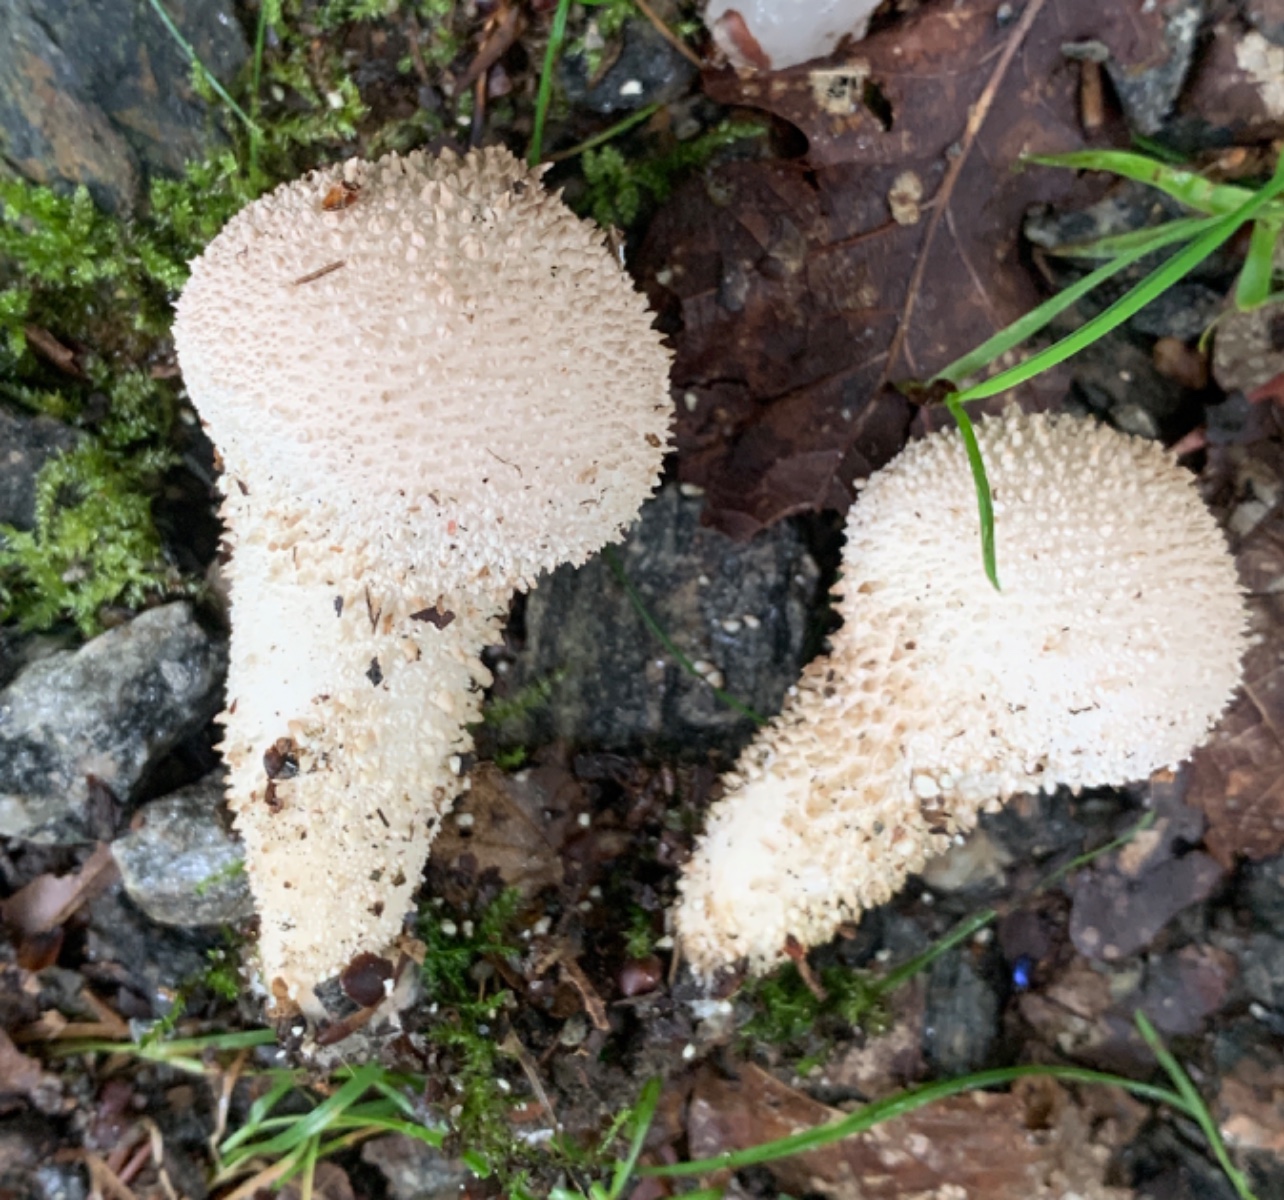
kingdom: Fungi
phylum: Basidiomycota
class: Agaricomycetes
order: Agaricales
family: Lycoperdaceae
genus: Lycoperdon
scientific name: Lycoperdon perlatum
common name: krystal-støvbold
